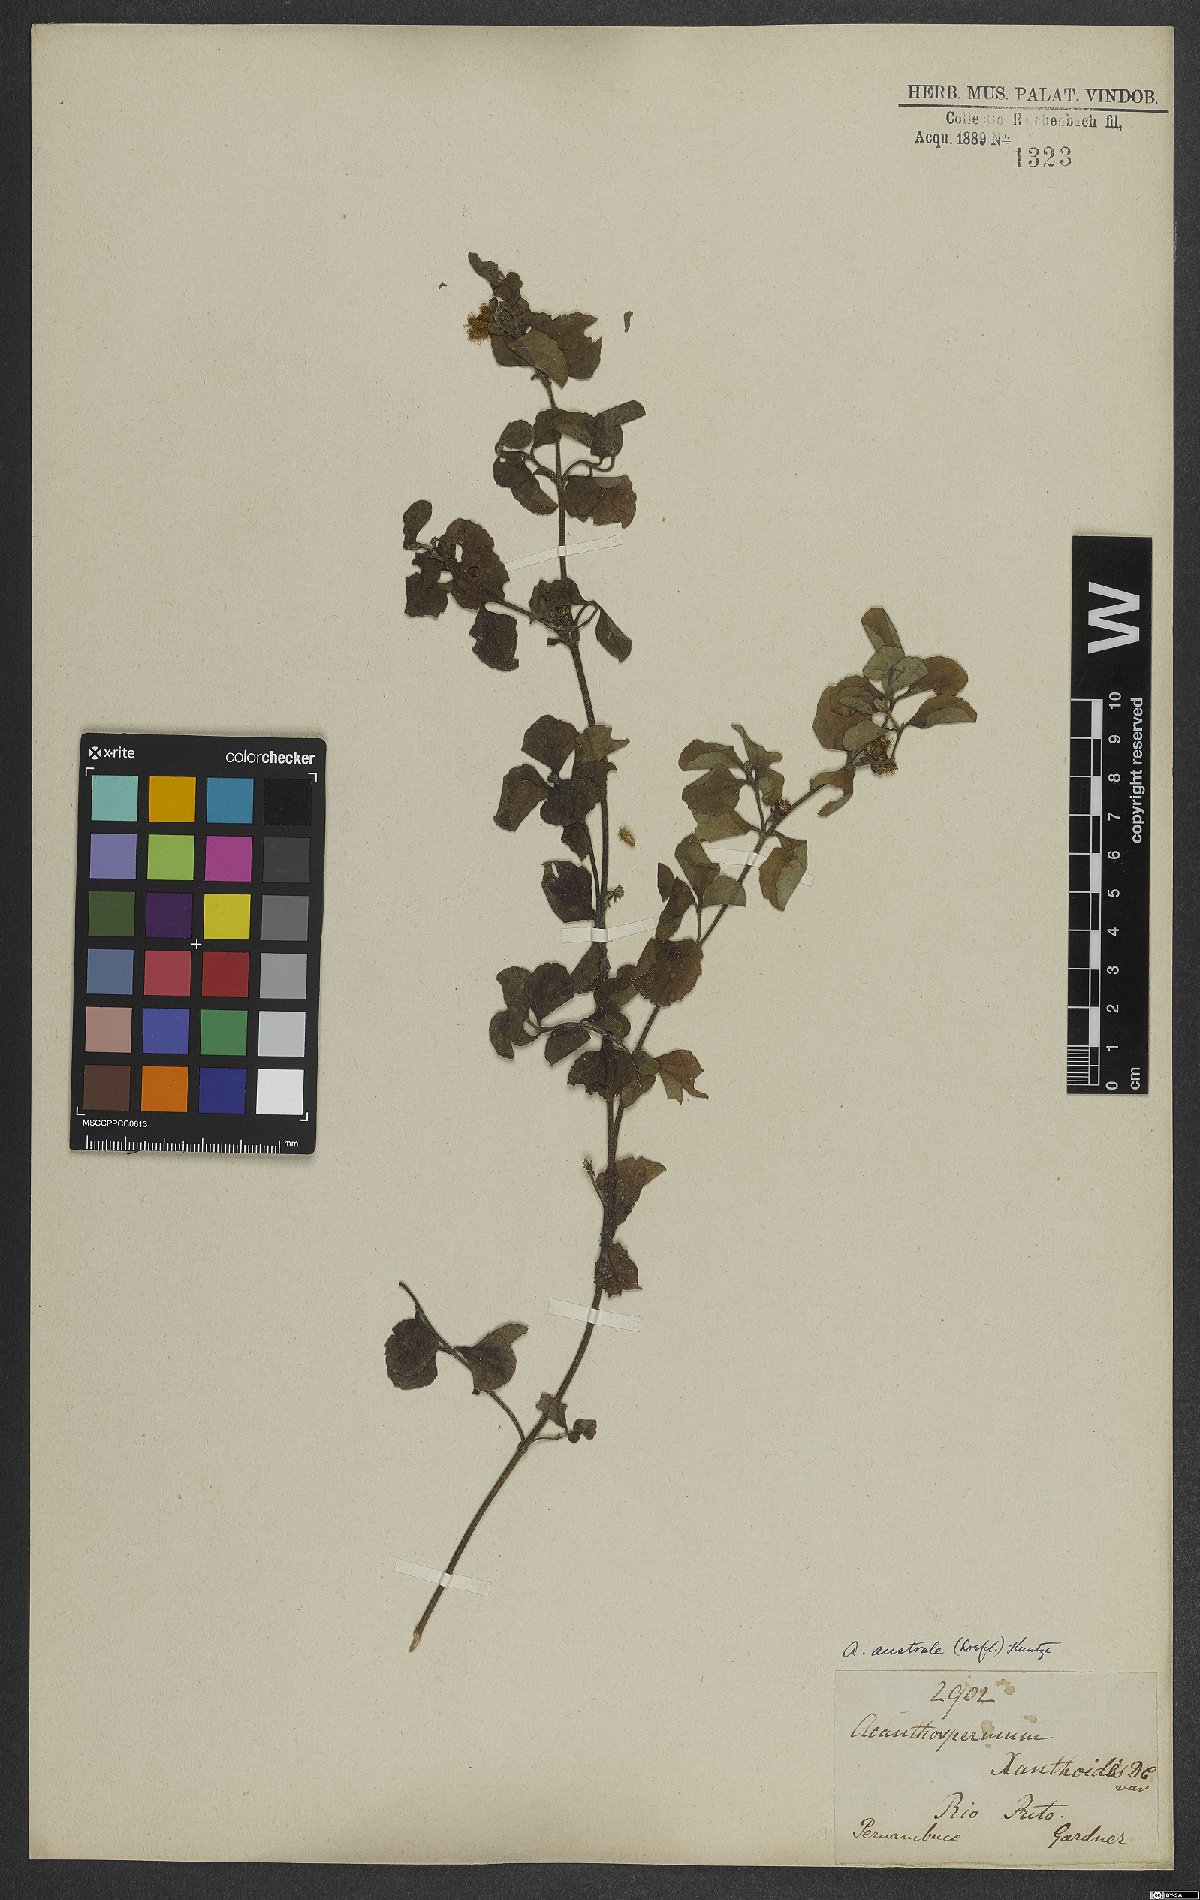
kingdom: Plantae
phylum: Tracheophyta
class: Magnoliopsida
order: Asterales
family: Asteraceae
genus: Acanthospermum
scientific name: Acanthospermum australe
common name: Paraguayan starbur
